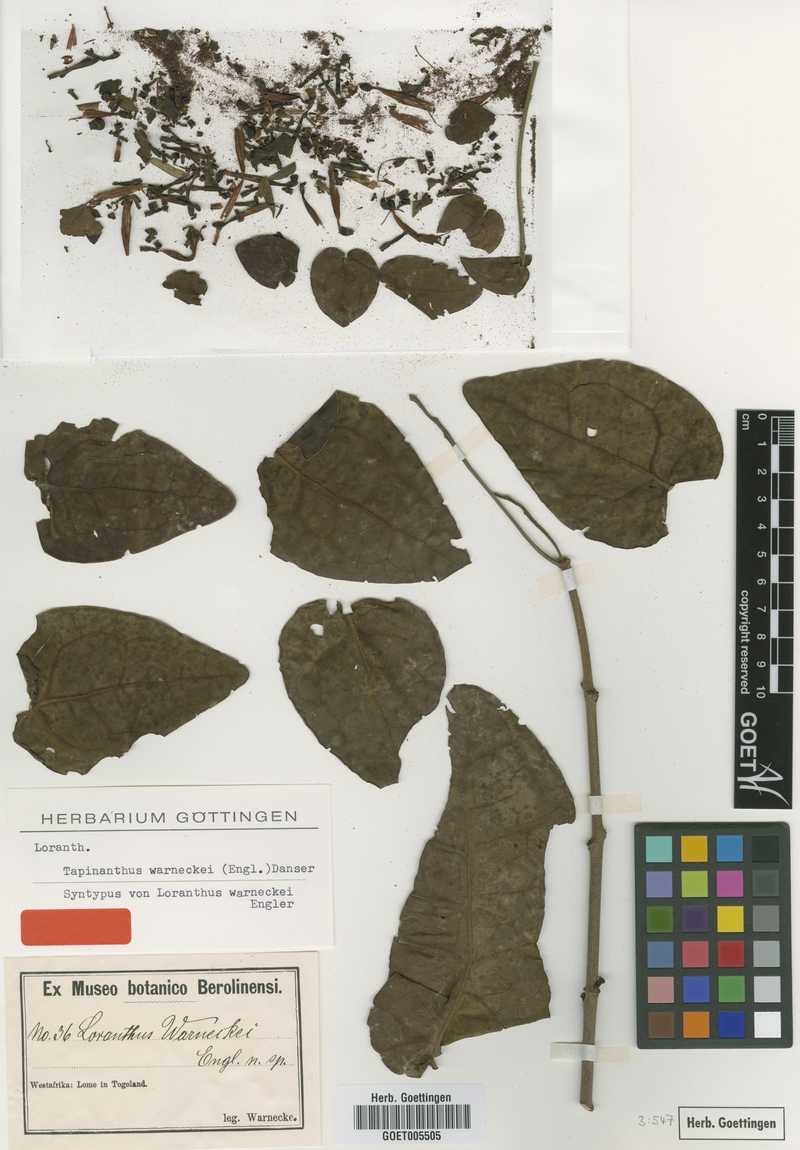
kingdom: Plantae
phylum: Tracheophyta
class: Magnoliopsida
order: Santalales
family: Loranthaceae
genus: Tapinanthus
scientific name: Tapinanthus sessilifolius
